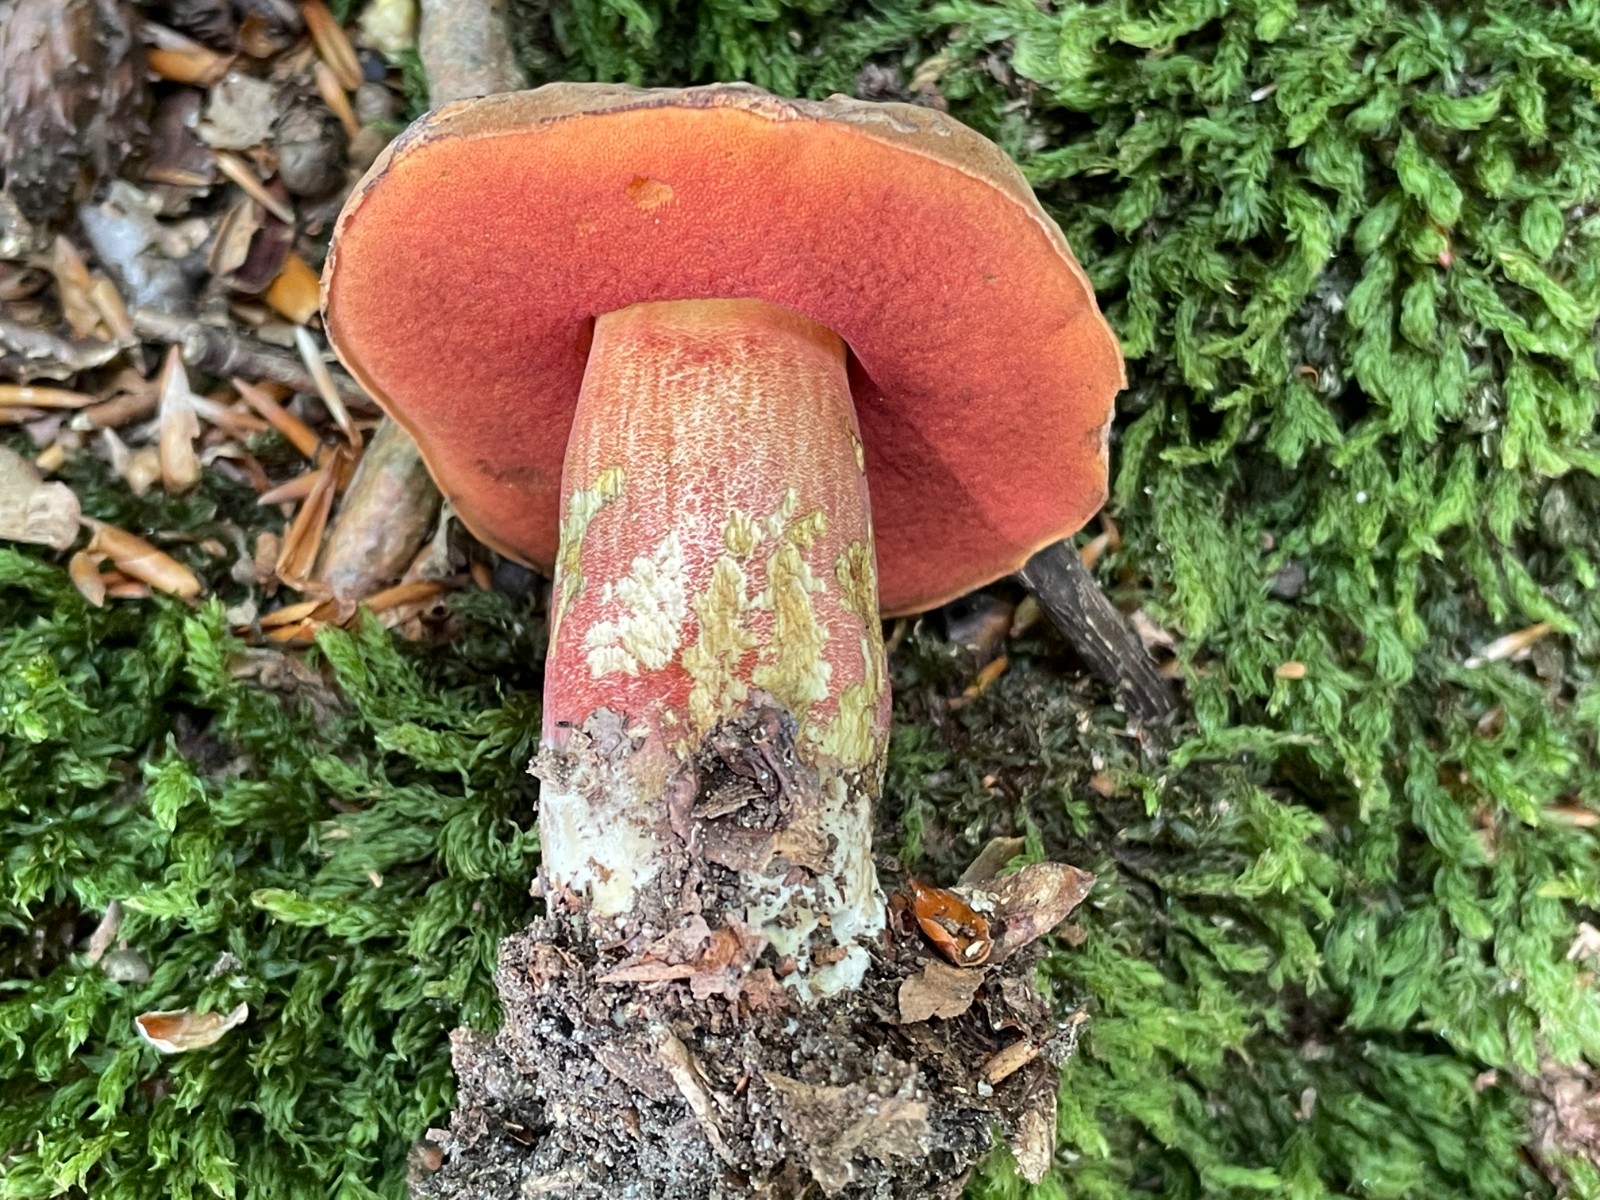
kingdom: Fungi
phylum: Basidiomycota
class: Agaricomycetes
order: Boletales
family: Boletaceae
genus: Neoboletus
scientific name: Neoboletus erythropus
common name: punktstokket indigorørhat
